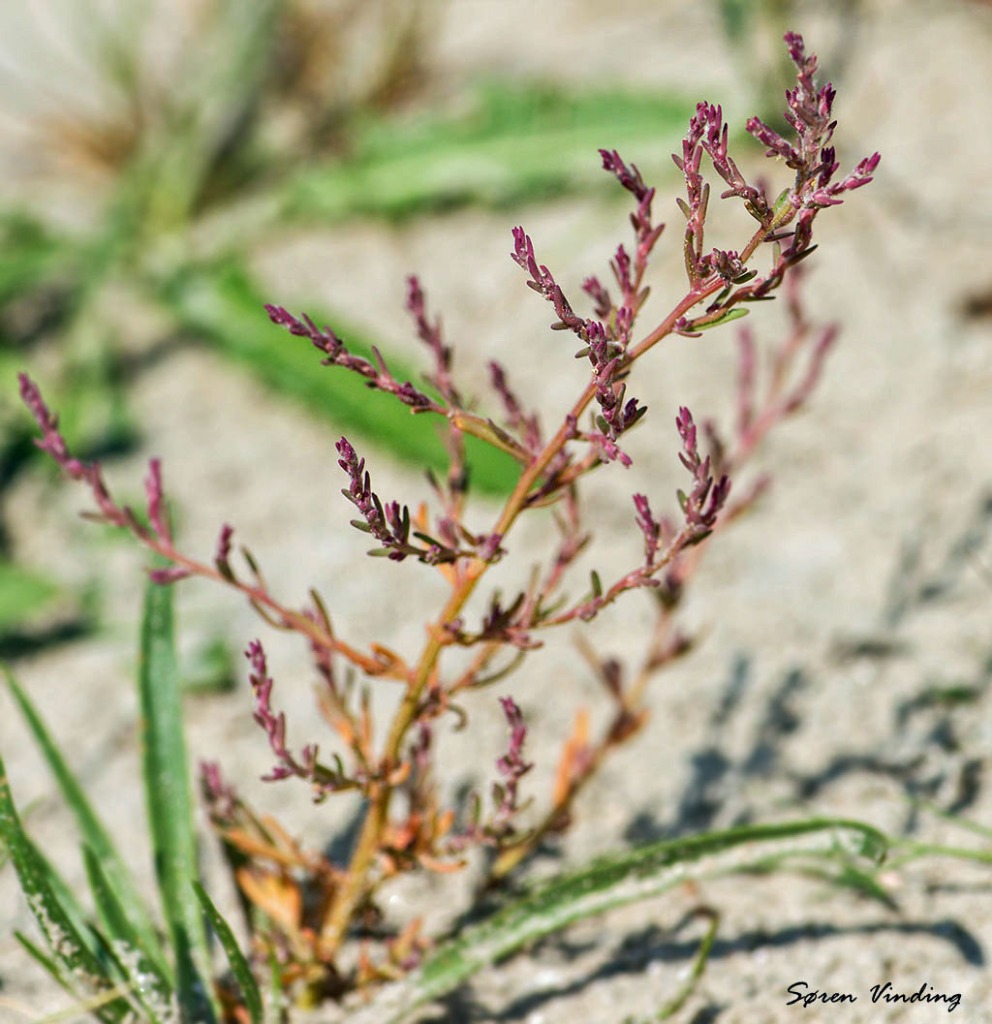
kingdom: Plantae
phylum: Tracheophyta
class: Magnoliopsida
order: Caryophyllales
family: Amaranthaceae
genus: Spirobassia
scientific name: Spirobassia hirsuta
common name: Tangurt
